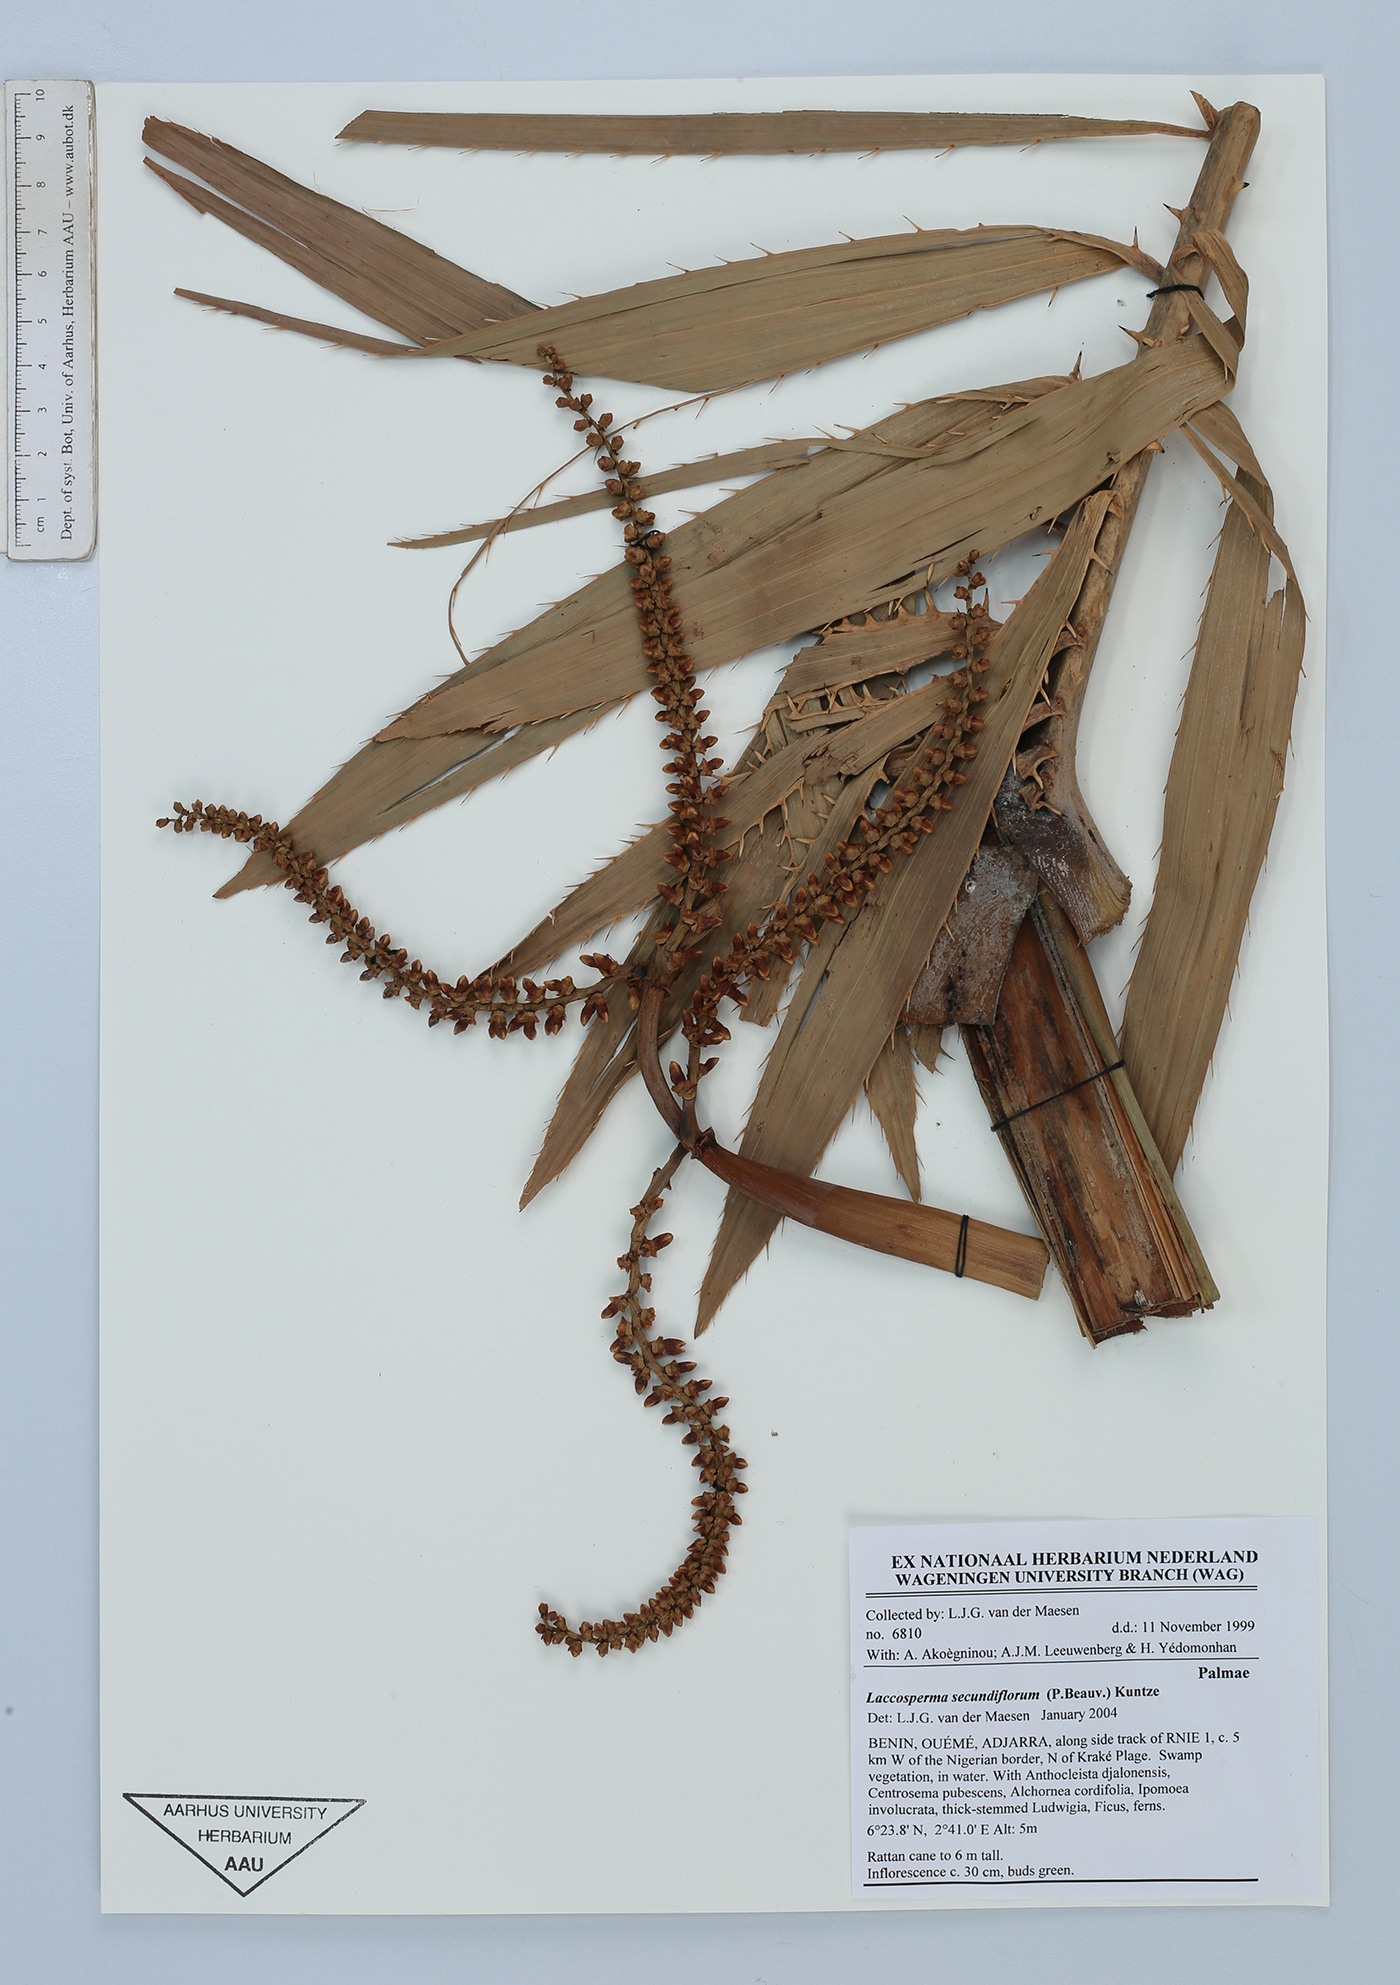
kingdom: Plantae
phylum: Tracheophyta
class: Liliopsida
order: Arecales
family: Arecaceae
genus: Laccosperma
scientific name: Laccosperma secundiflorum
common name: Rattan
